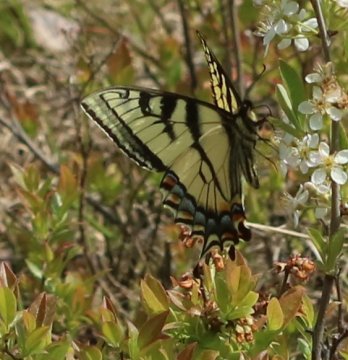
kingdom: Animalia
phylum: Arthropoda
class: Insecta
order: Lepidoptera
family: Papilionidae
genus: Pterourus
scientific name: Pterourus canadensis
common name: Canadian Tiger Swallowtail
